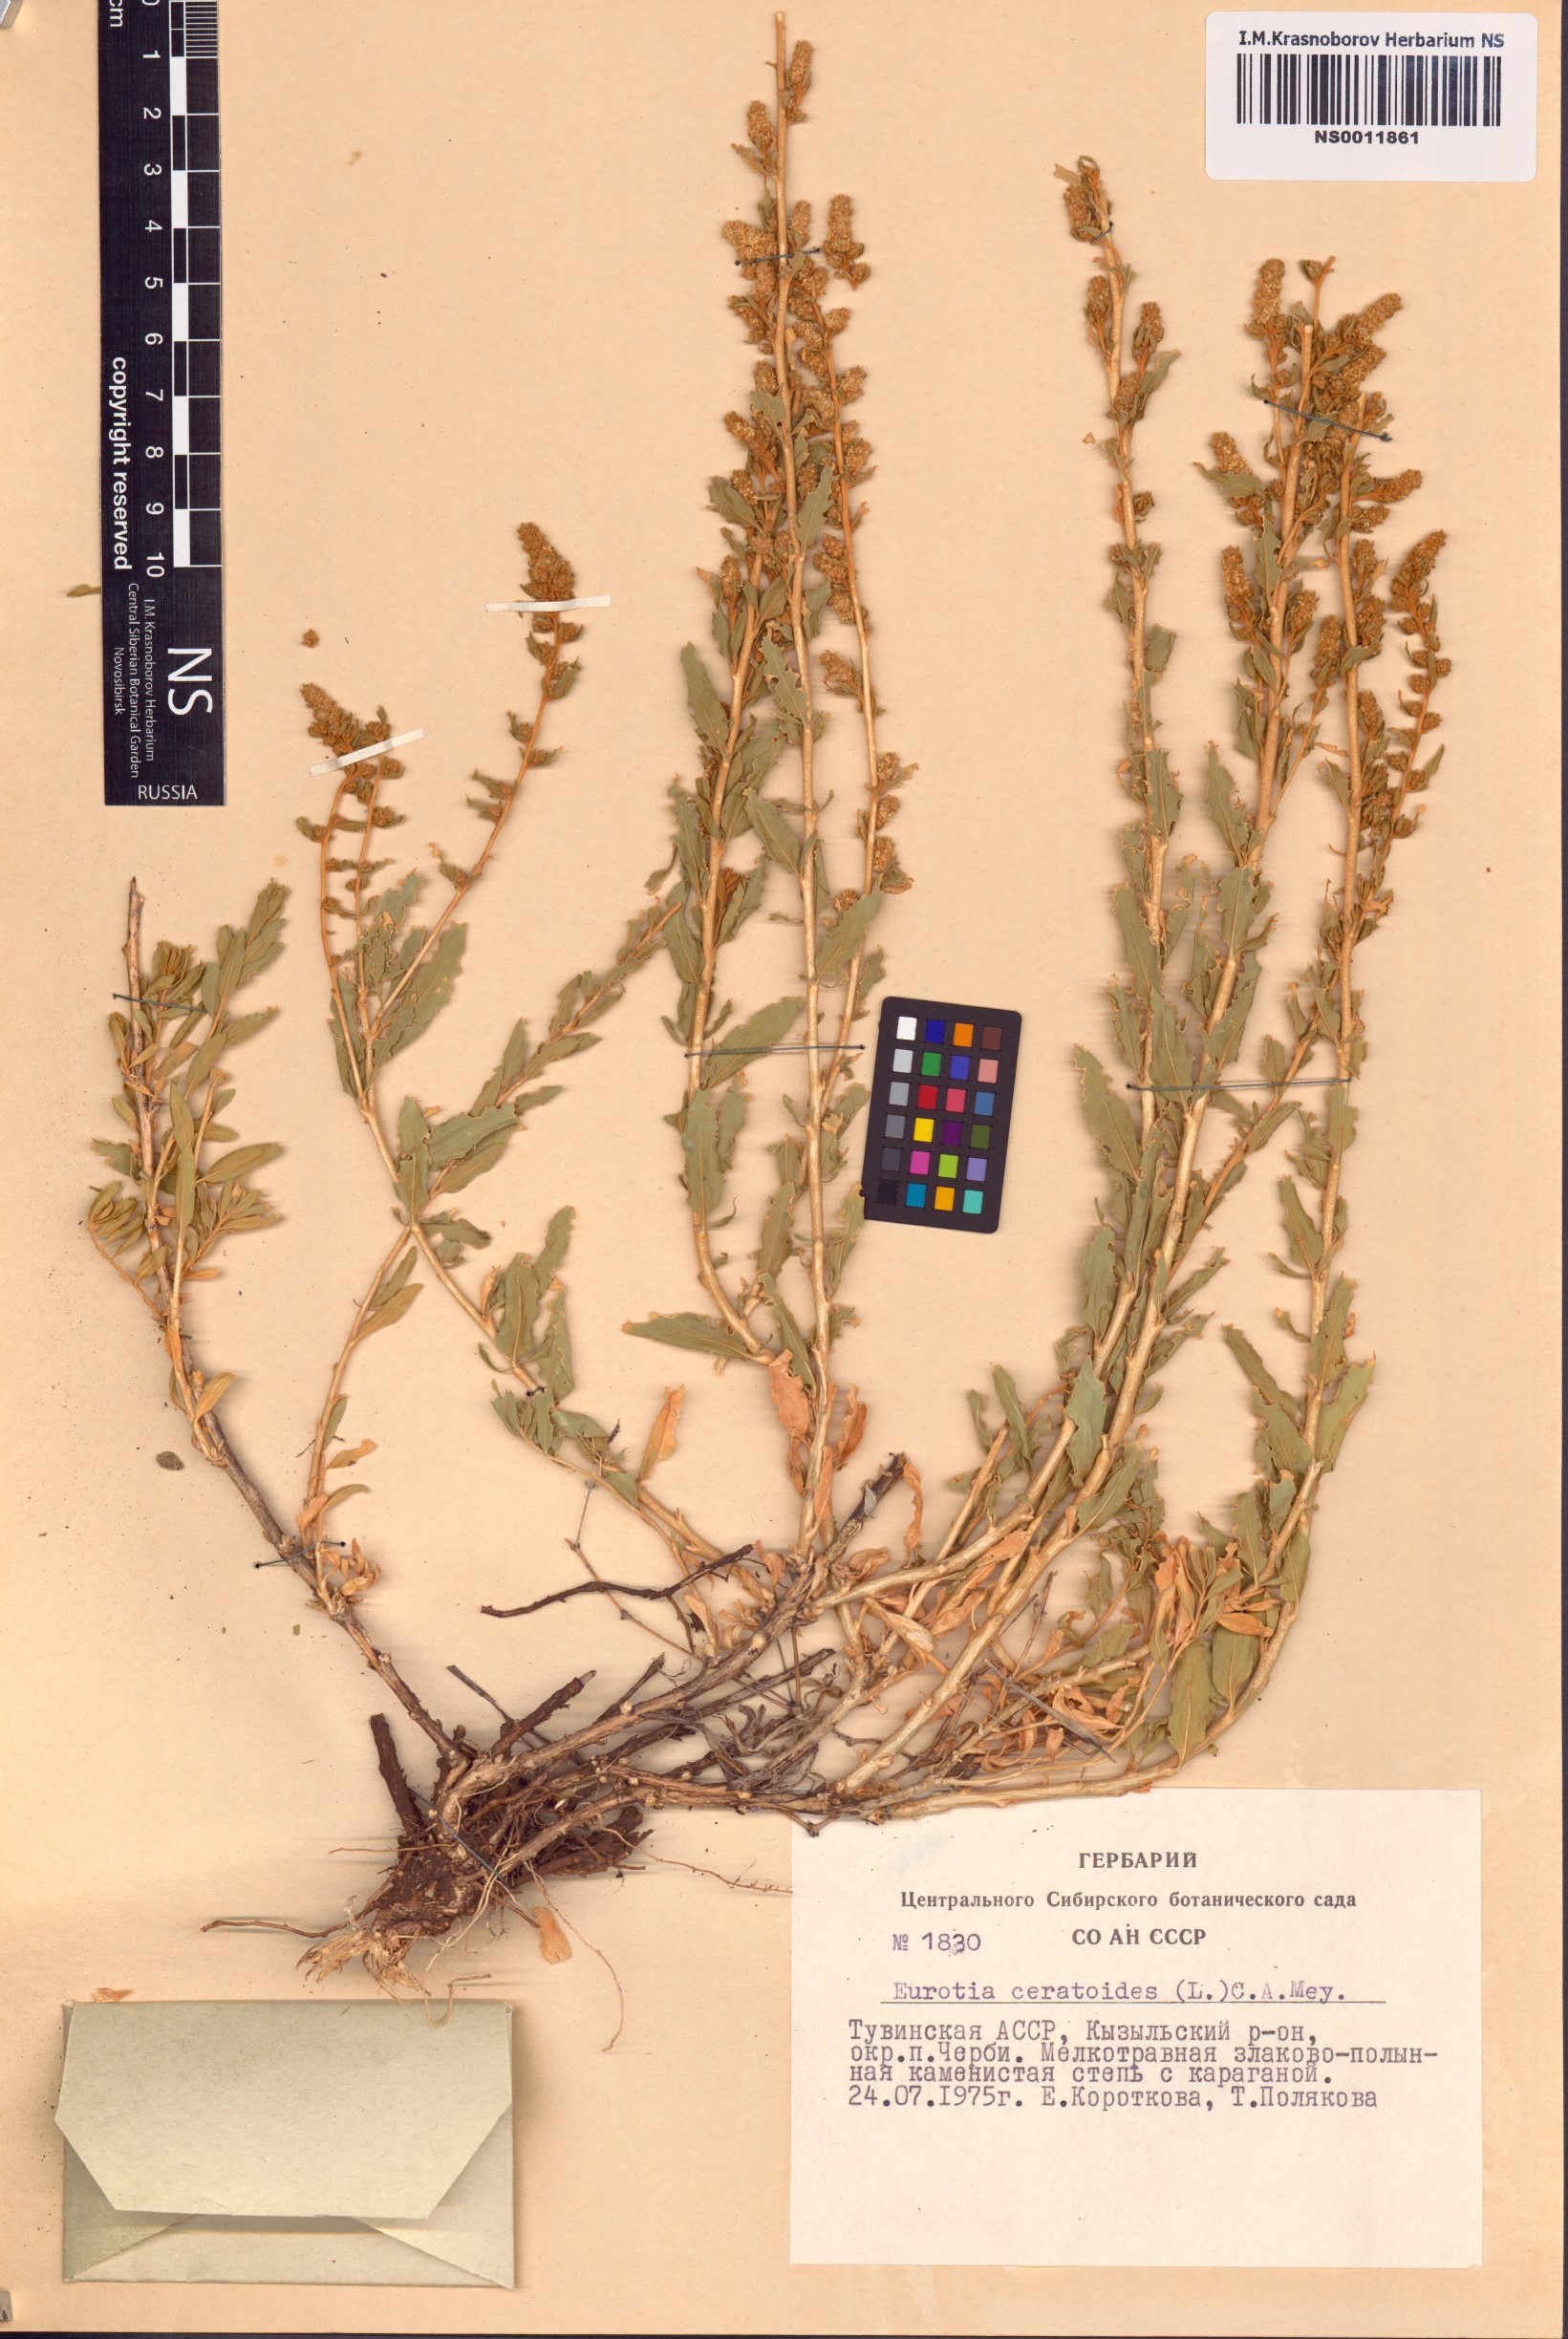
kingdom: Plantae
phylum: Tracheophyta
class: Magnoliopsida
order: Caryophyllales
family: Amaranthaceae
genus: Krascheninnikovia
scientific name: Krascheninnikovia ceratoides
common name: Pamirian winterfat
